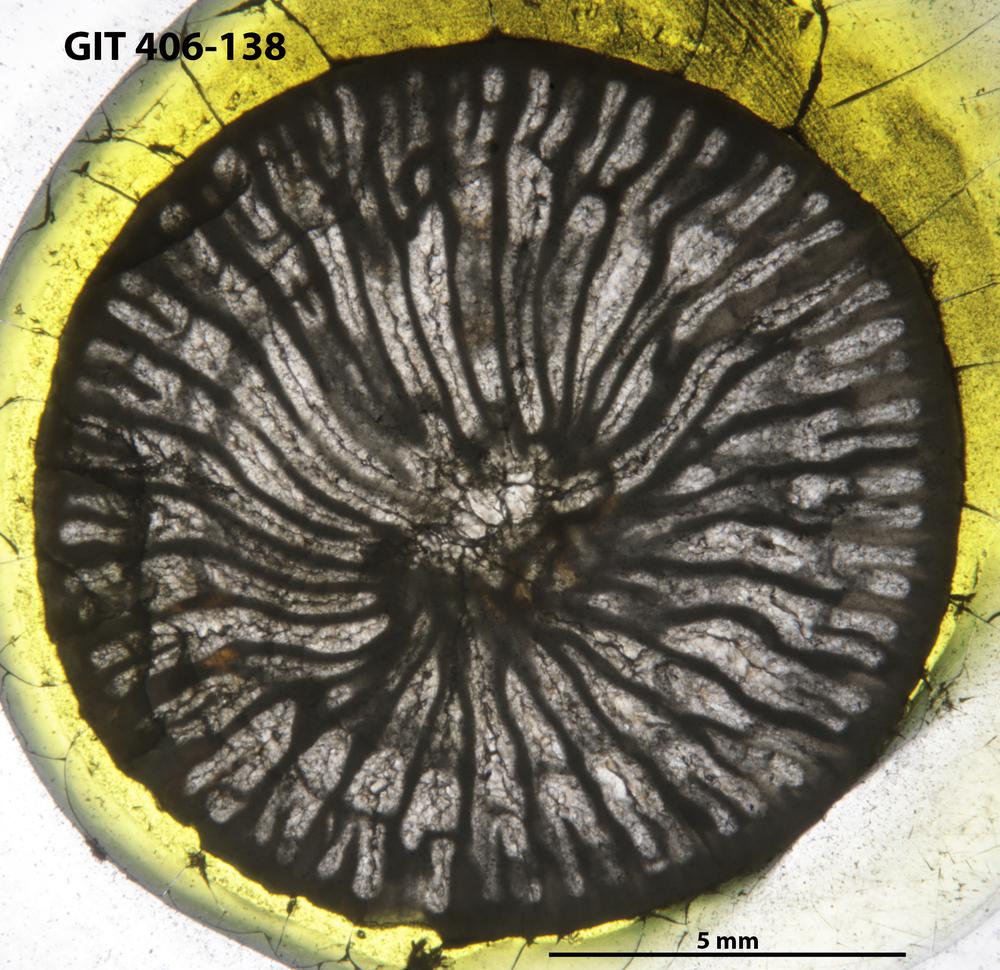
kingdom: Animalia
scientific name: Animalia
